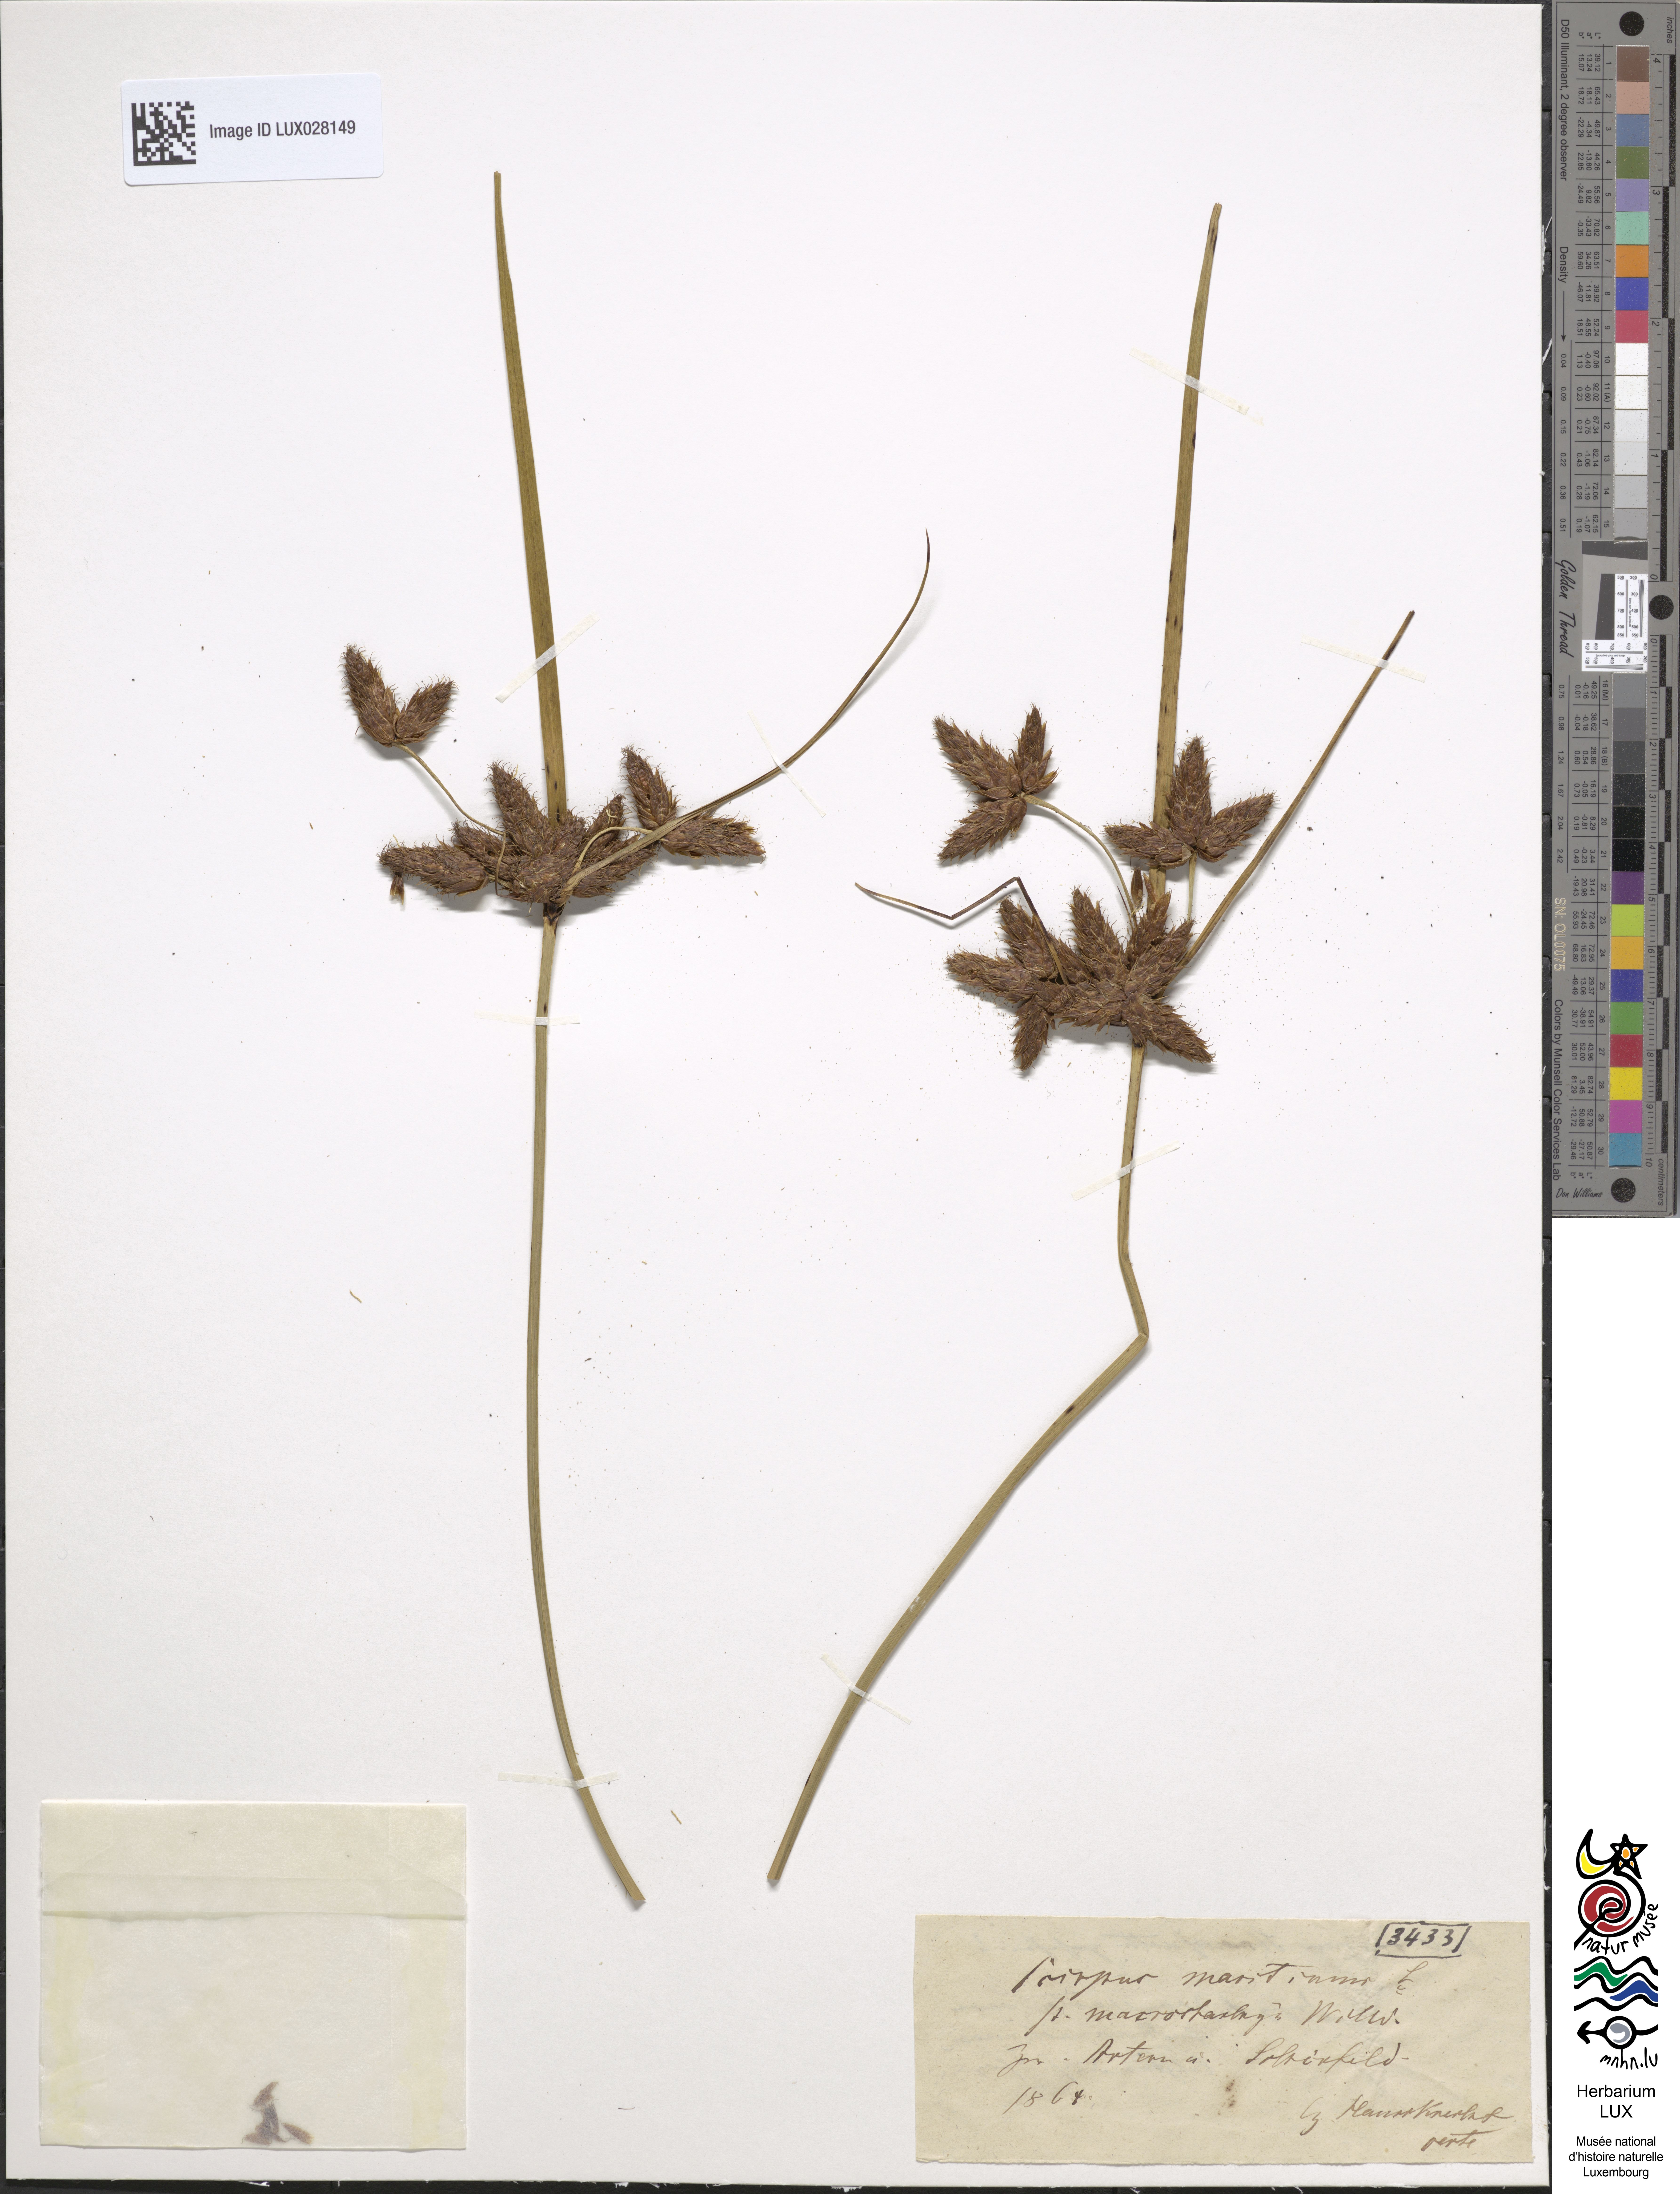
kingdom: Plantae
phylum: Tracheophyta
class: Liliopsida
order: Poales
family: Cyperaceae
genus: Bolboschoenus
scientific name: Bolboschoenus laticarpus
